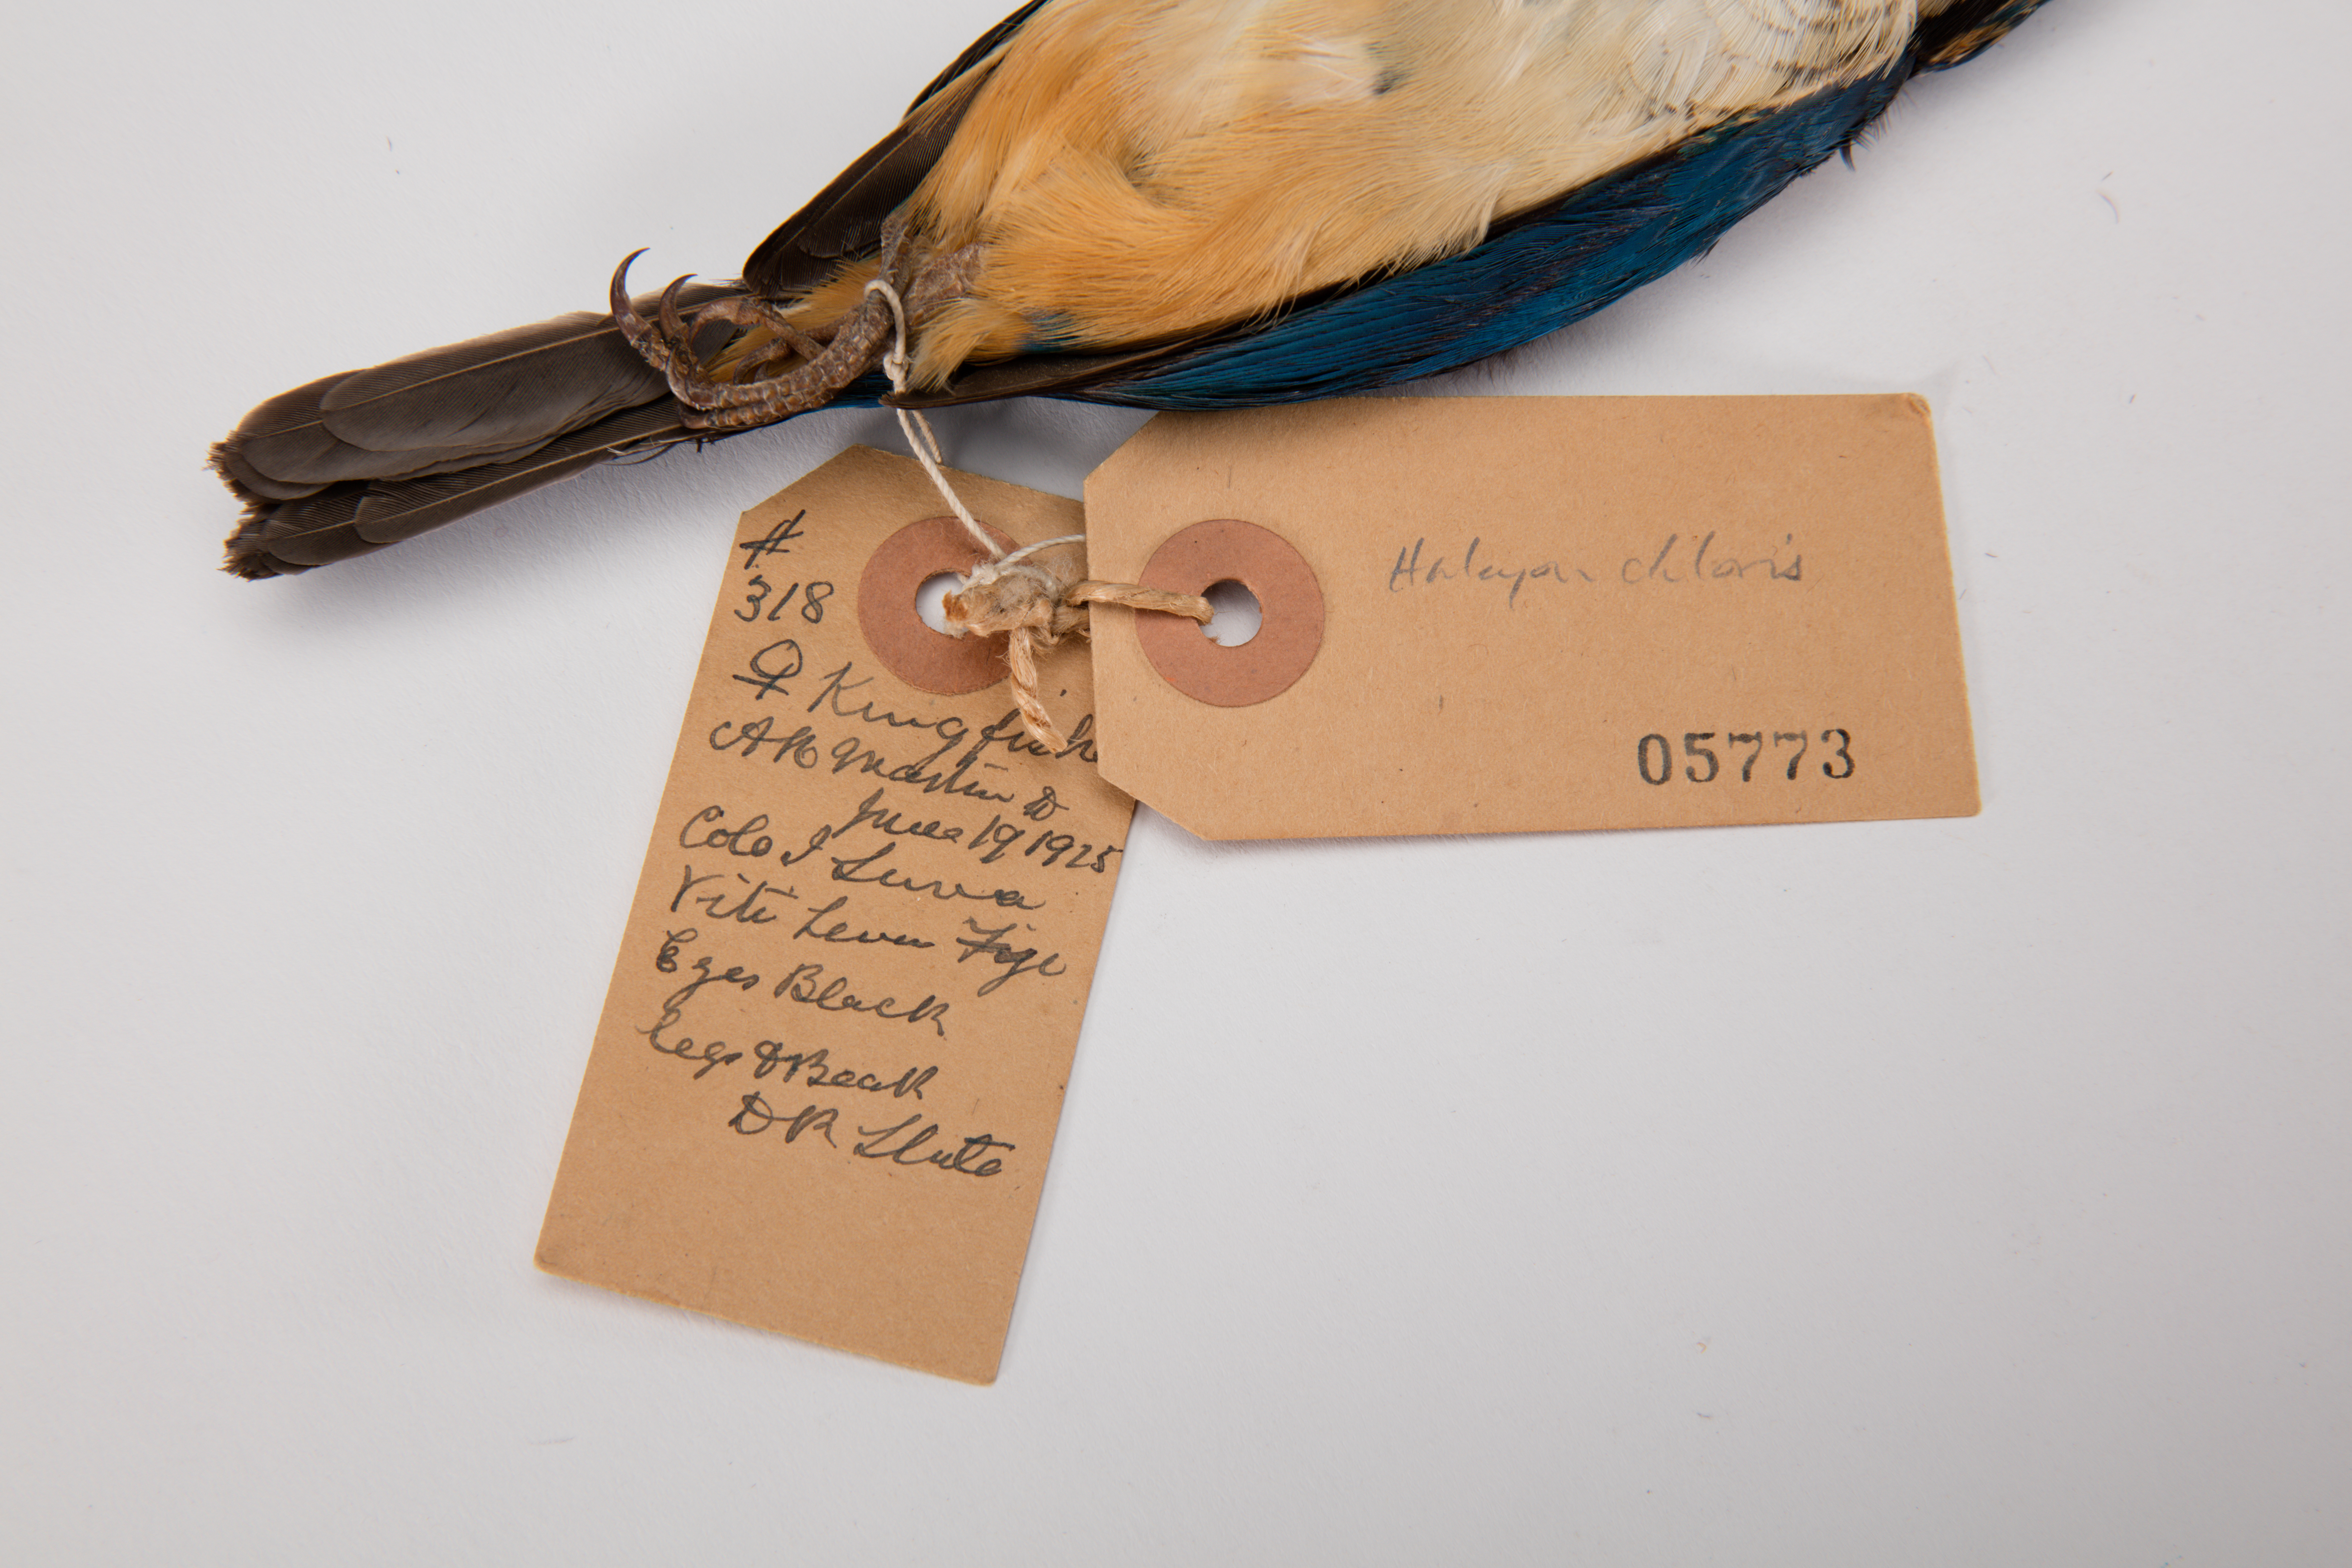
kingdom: Animalia
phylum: Chordata
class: Aves
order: Coraciiformes
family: Alcedinidae
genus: Todiramphus
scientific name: Todiramphus chloris
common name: Collared kingfisher
